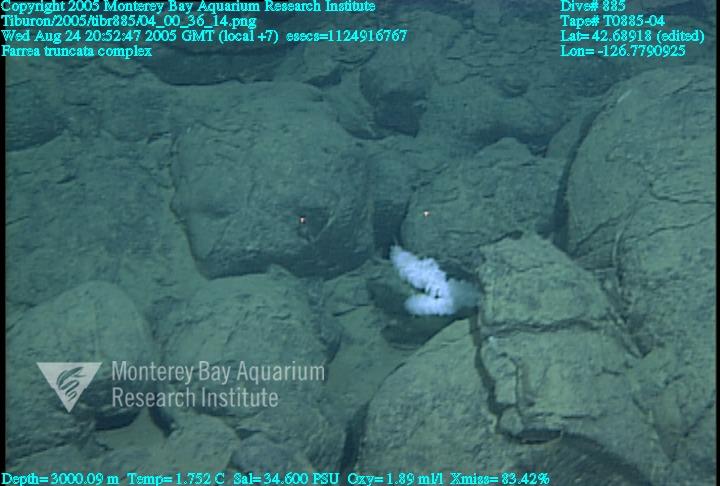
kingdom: Animalia
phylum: Porifera
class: Hexactinellida
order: Sceptrulophora
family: Farreidae
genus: Farrea
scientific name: Farrea truncata
